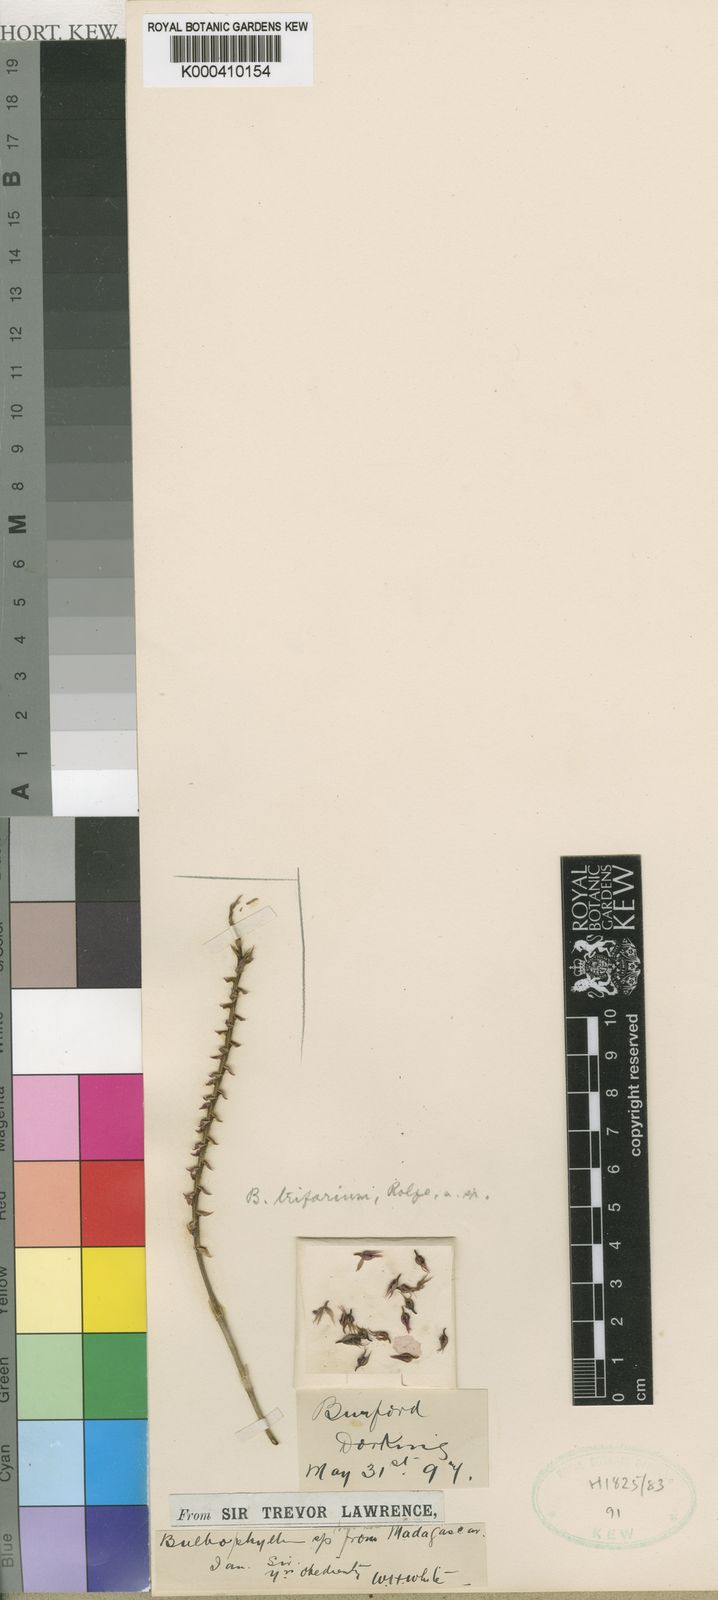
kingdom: Plantae
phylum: Tracheophyta
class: Liliopsida
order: Asparagales
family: Orchidaceae
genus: Bulbophyllum
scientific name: Bulbophyllum trifarium
